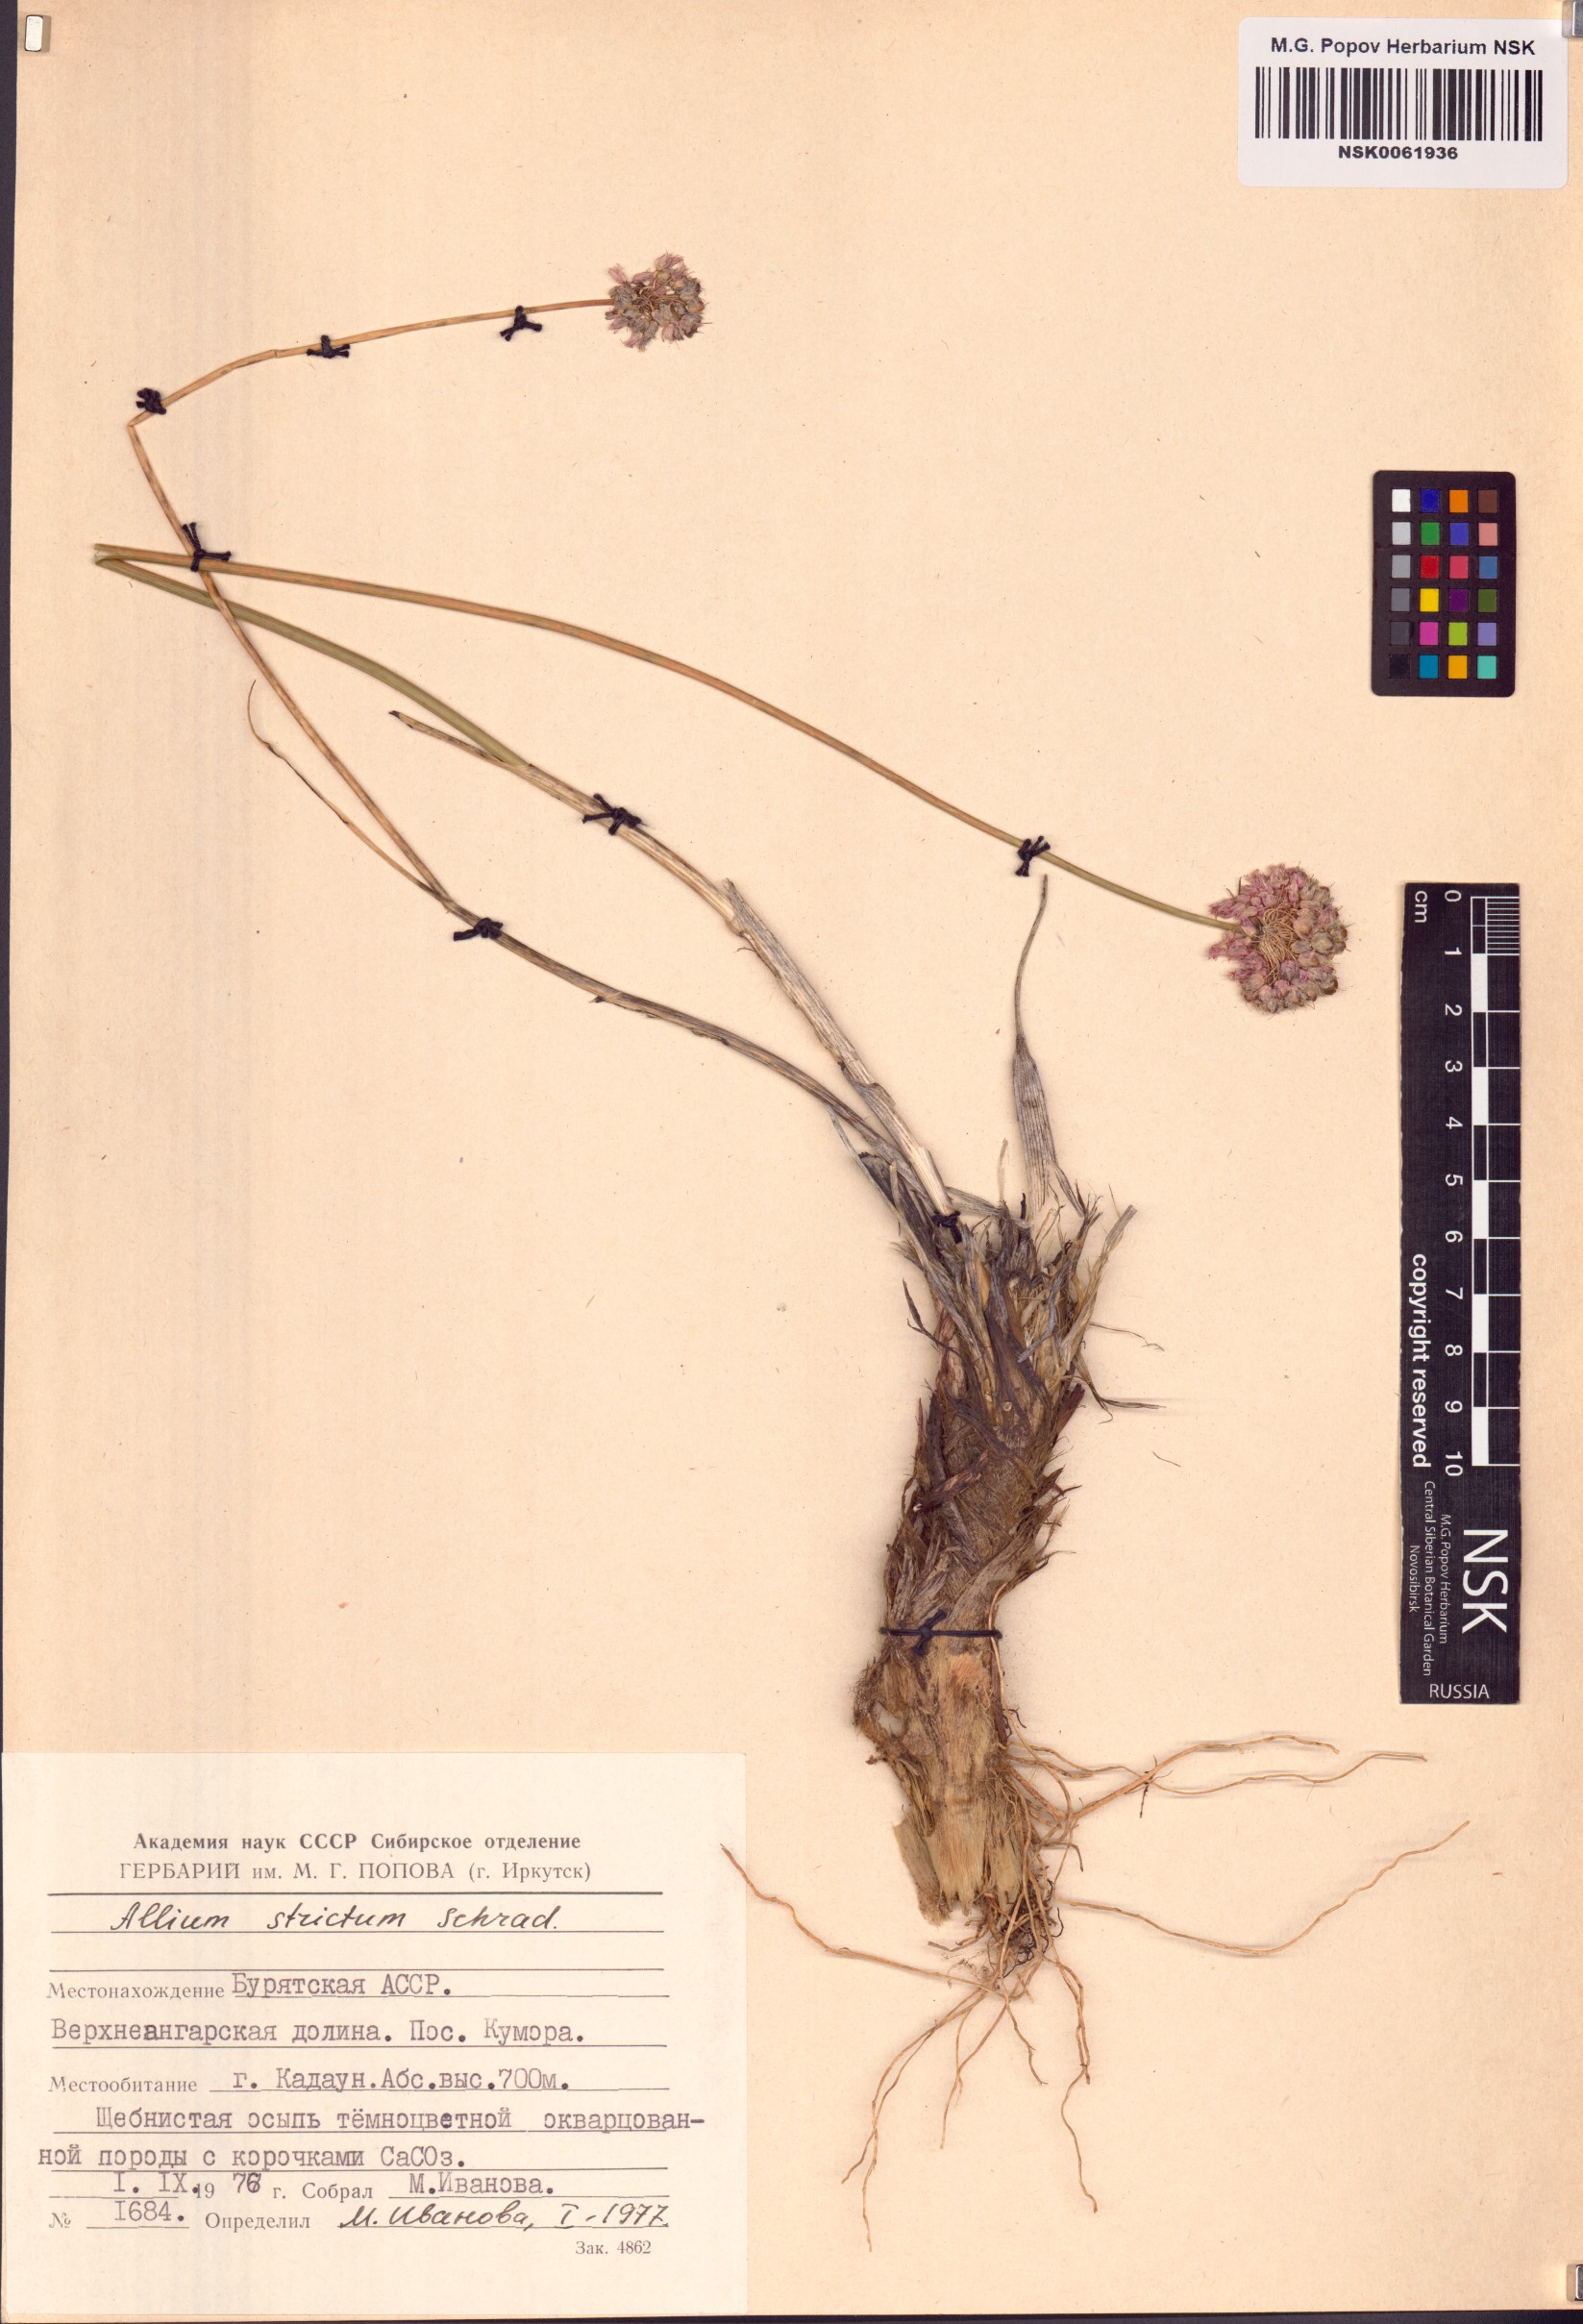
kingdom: Plantae
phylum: Tracheophyta
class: Liliopsida
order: Asparagales
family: Amaryllidaceae
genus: Allium
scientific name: Allium strictum
